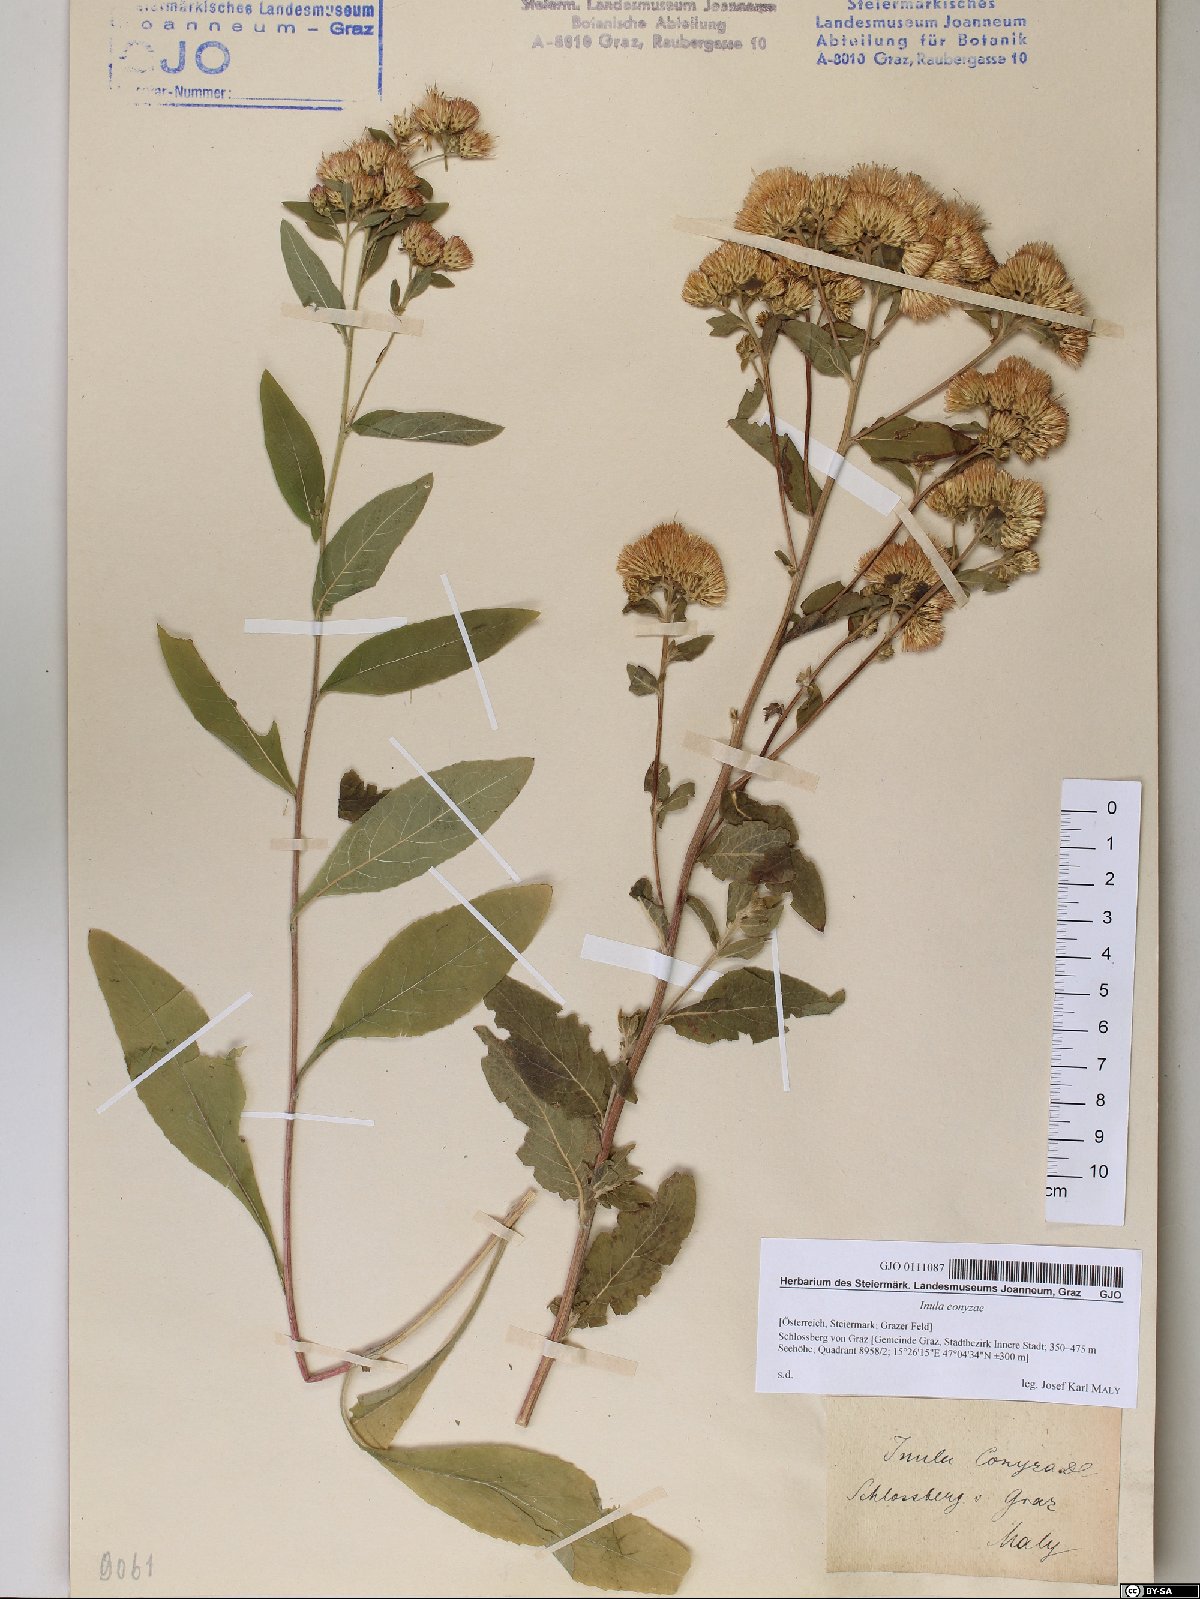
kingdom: Plantae
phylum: Tracheophyta
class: Magnoliopsida
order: Asterales
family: Asteraceae
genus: Pentanema
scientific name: Pentanema squarrosum
